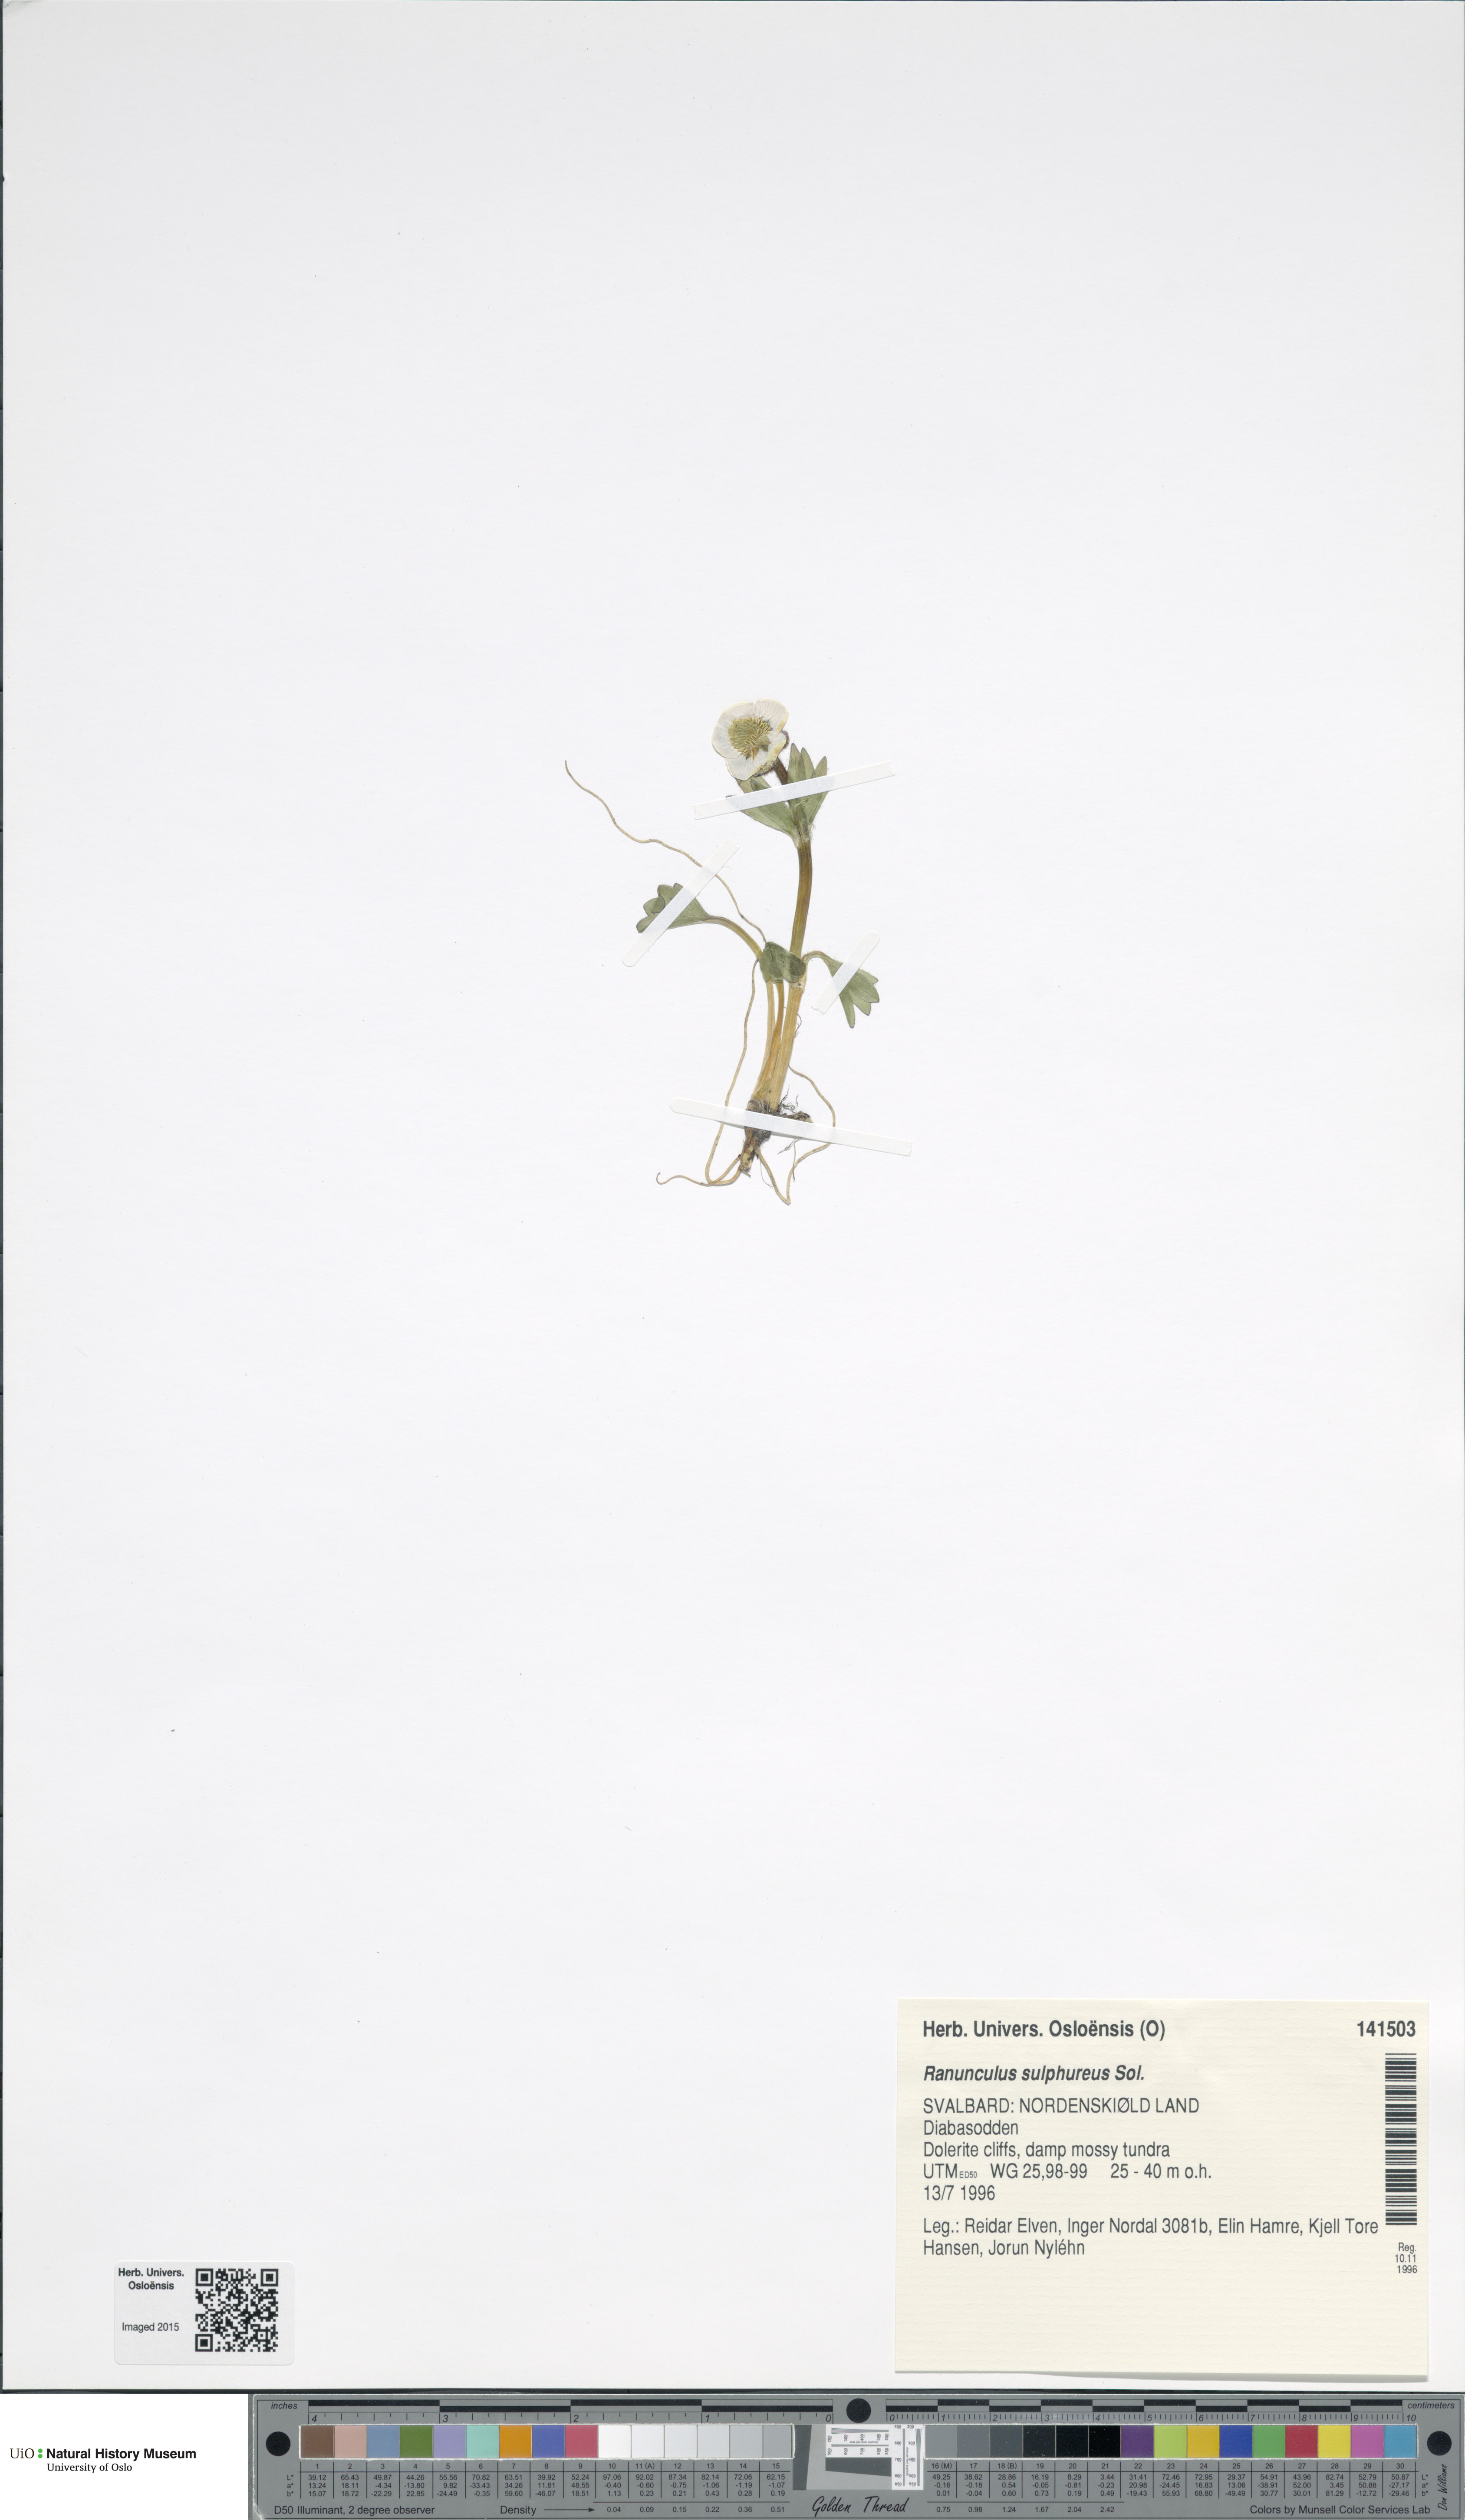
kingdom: Plantae
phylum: Tracheophyta
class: Magnoliopsida
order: Ranunculales
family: Ranunculaceae
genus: Ranunculus
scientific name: Ranunculus sulphureus
